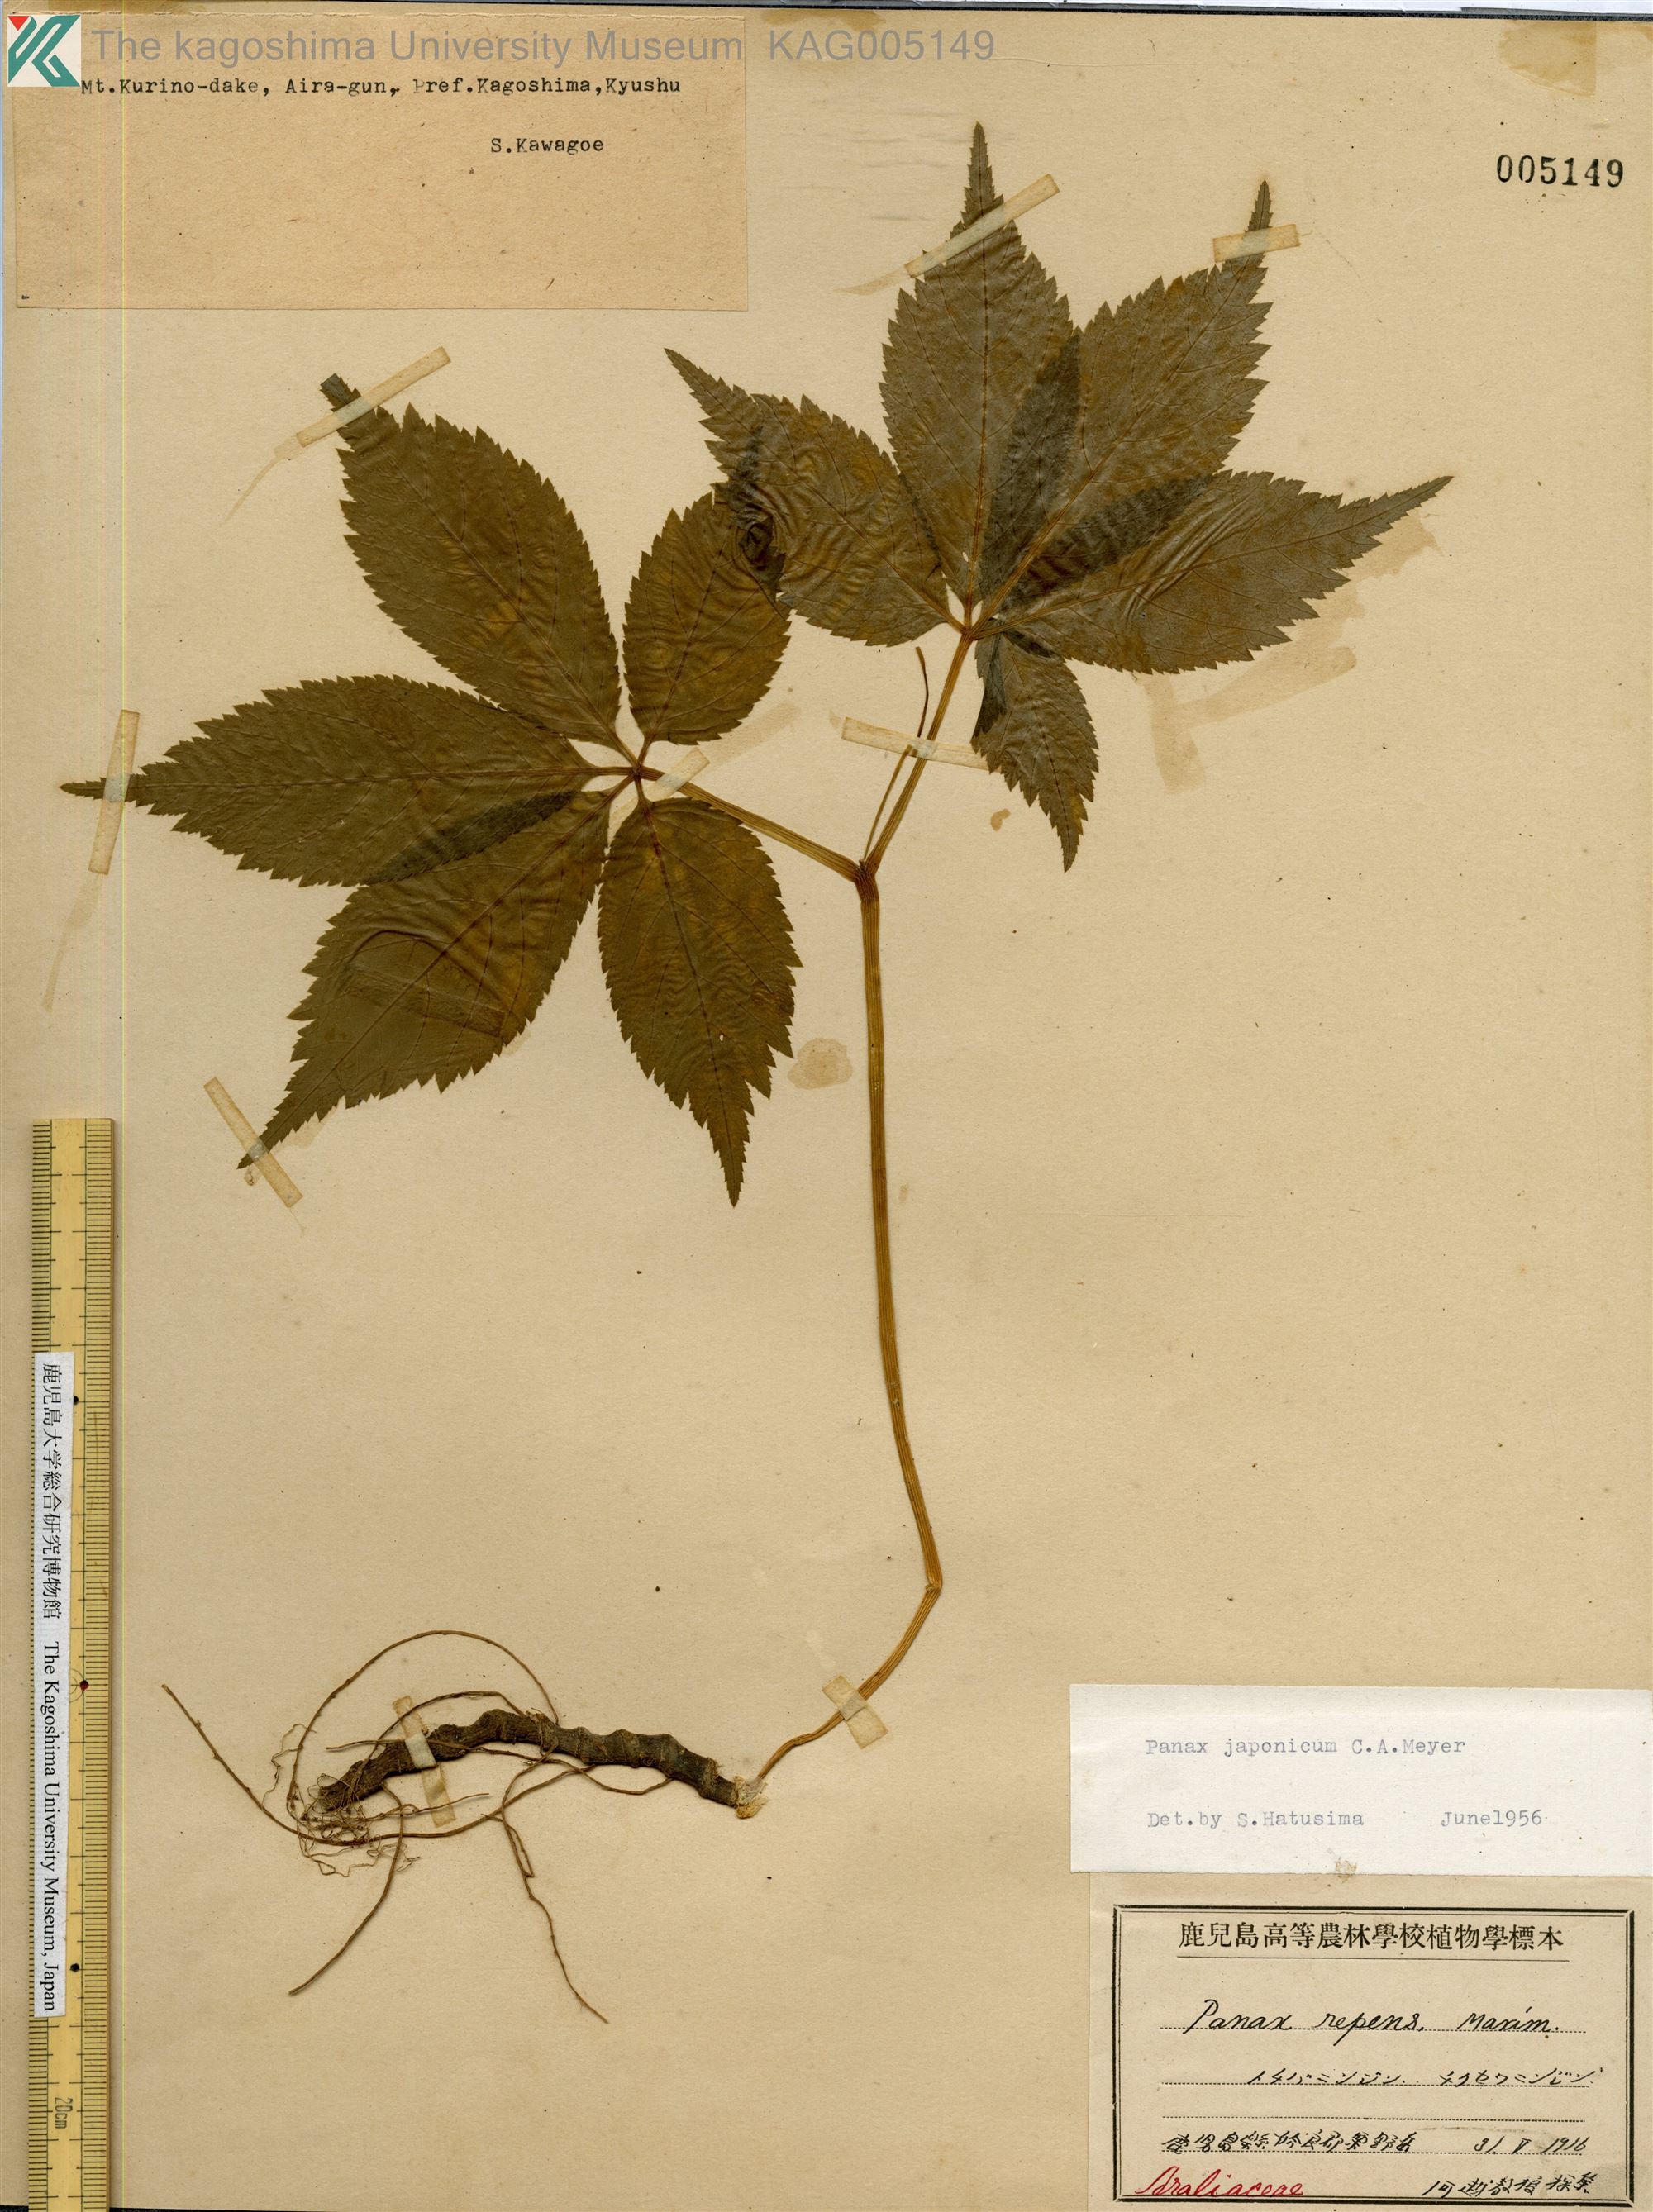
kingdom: Plantae
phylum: Tracheophyta
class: Magnoliopsida
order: Apiales
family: Araliaceae
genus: Panax
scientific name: Panax japonicus
